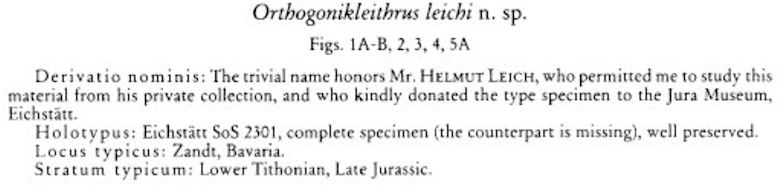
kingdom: Animalia
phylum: Chordata
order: Salmoniformes
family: Orthogonikleithridae
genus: Orthogonikleithrus
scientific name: Orthogonikleithrus leichi
